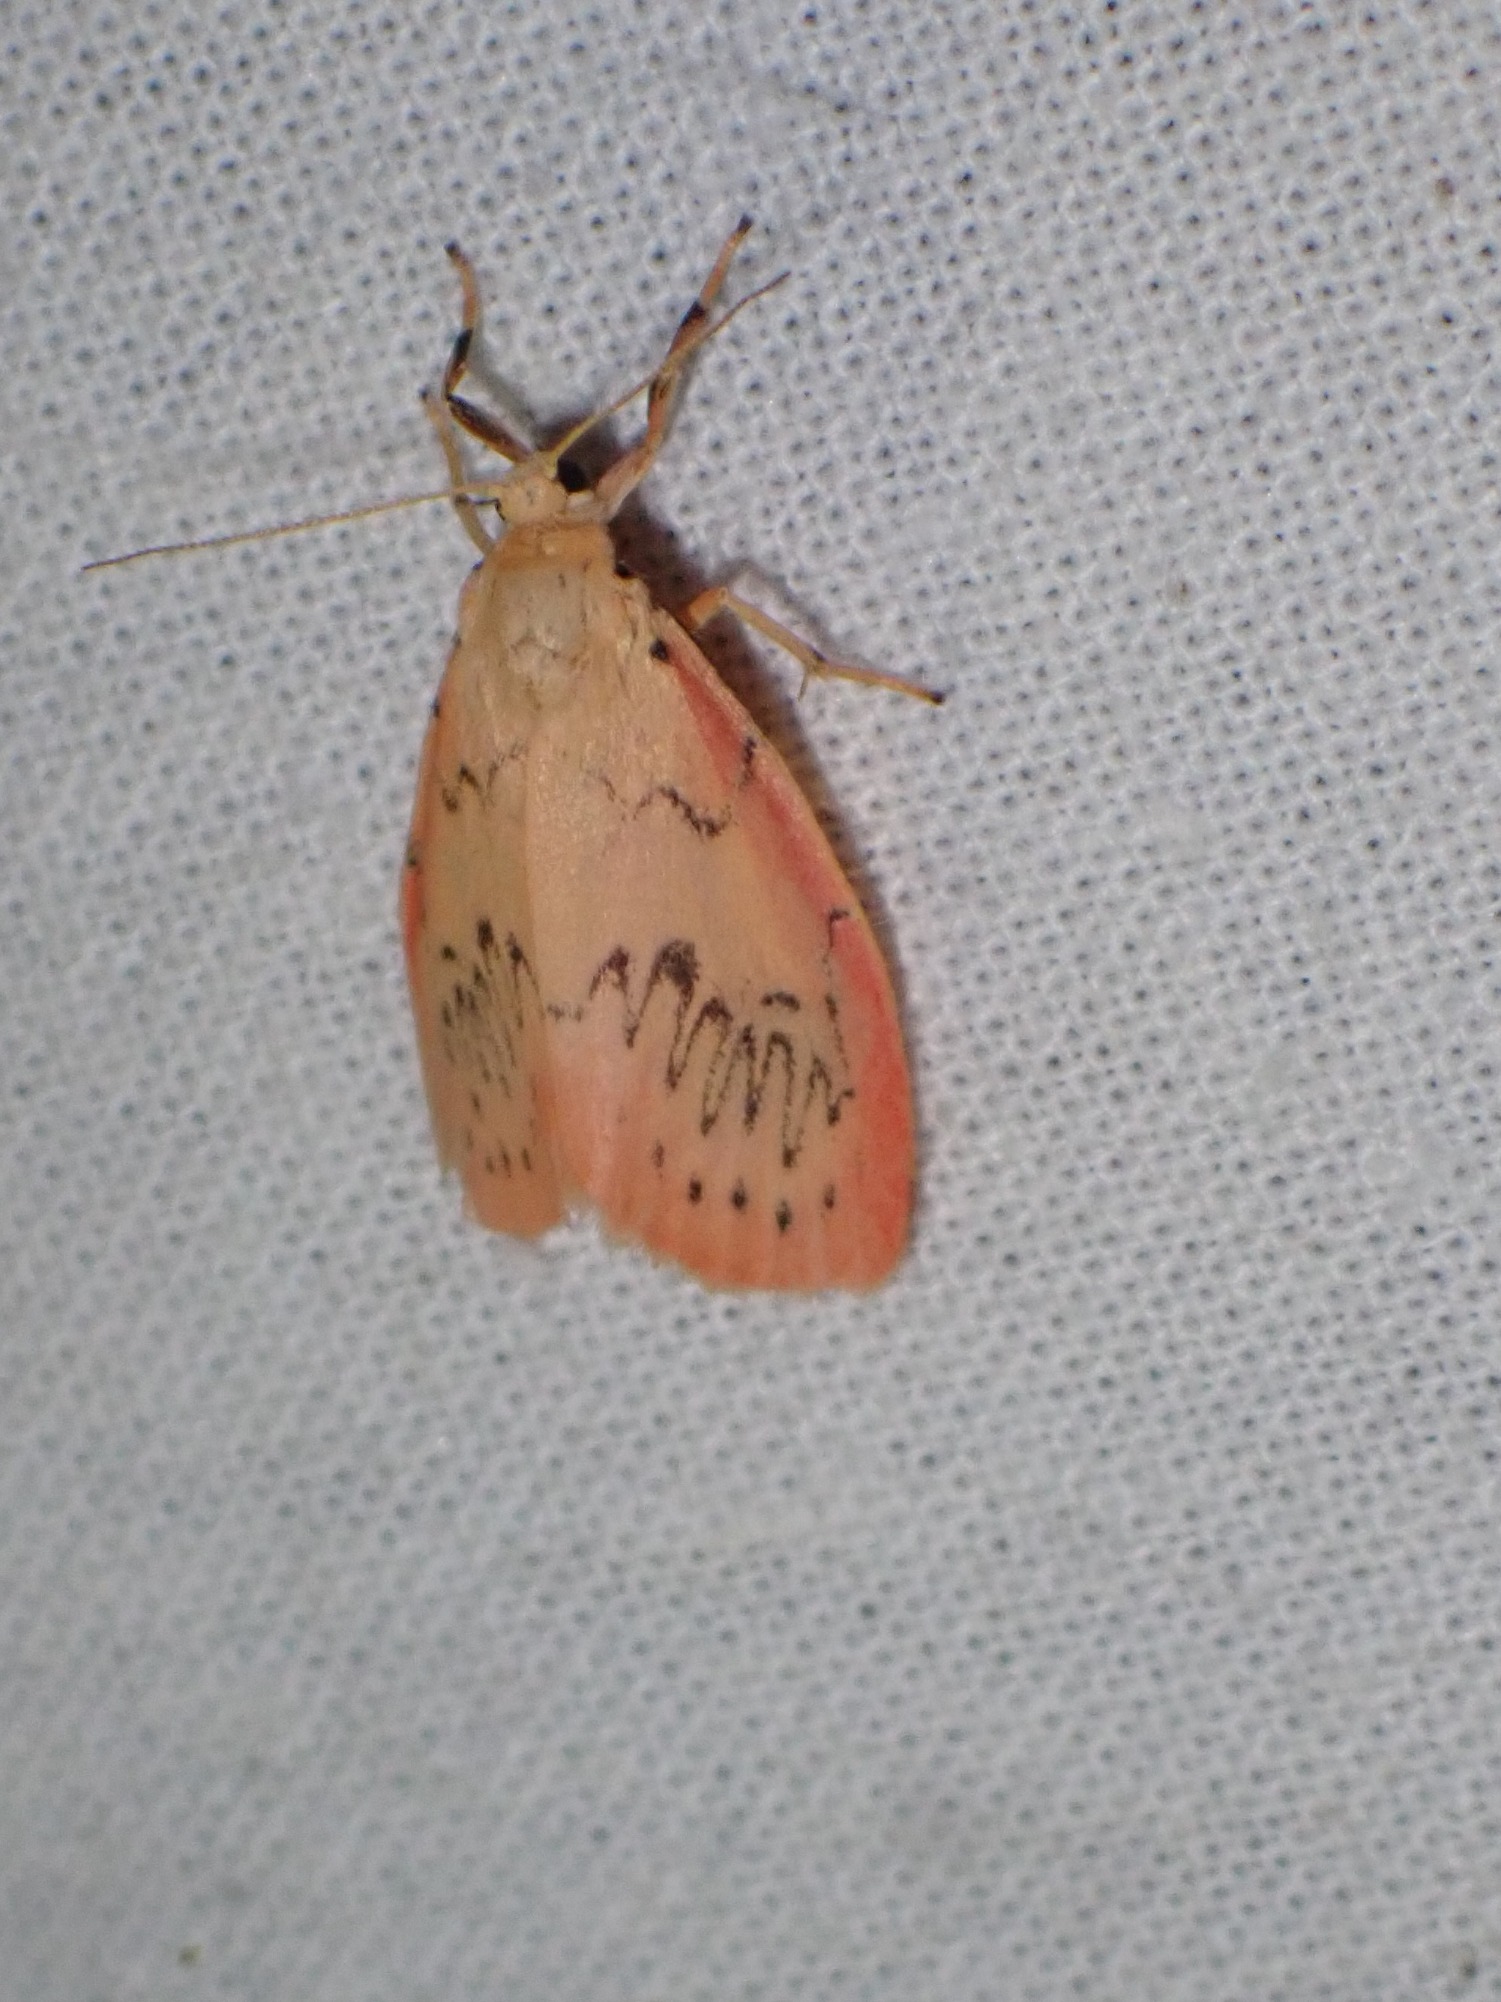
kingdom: Animalia
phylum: Arthropoda
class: Insecta
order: Lepidoptera
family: Erebidae
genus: Miltochrista
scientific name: Miltochrista miniata
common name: Rosenbjørn
